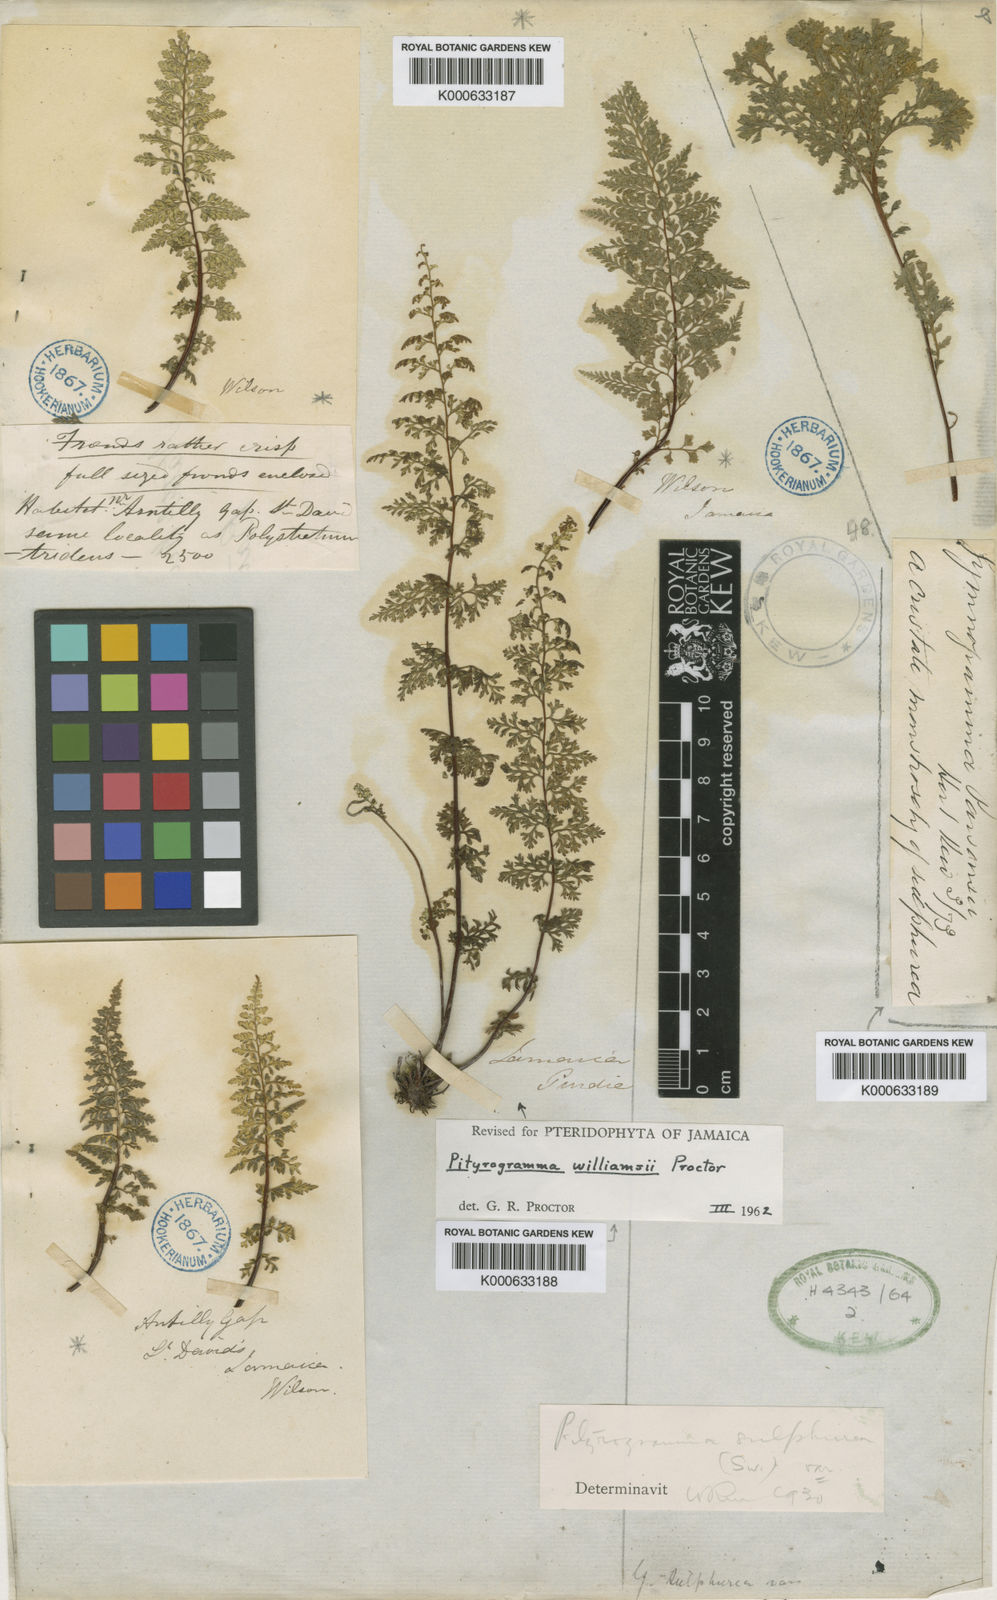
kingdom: Plantae
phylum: Tracheophyta
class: Polypodiopsida
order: Polypodiales
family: Pteridaceae
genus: Pityrogramma
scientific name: Pityrogramma williamsii
